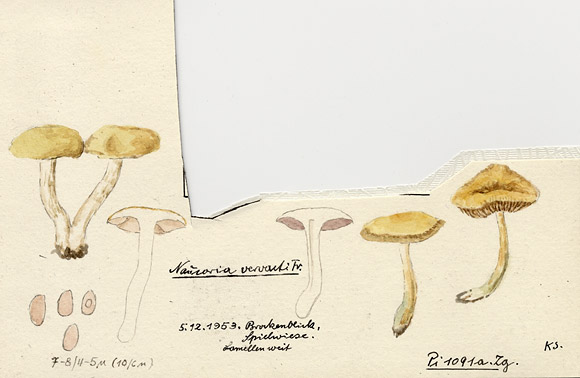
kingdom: Fungi
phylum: Basidiomycota
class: Agaricomycetes
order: Agaricales
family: Strophariaceae
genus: Agrocybe
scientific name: Agrocybe vervacti
